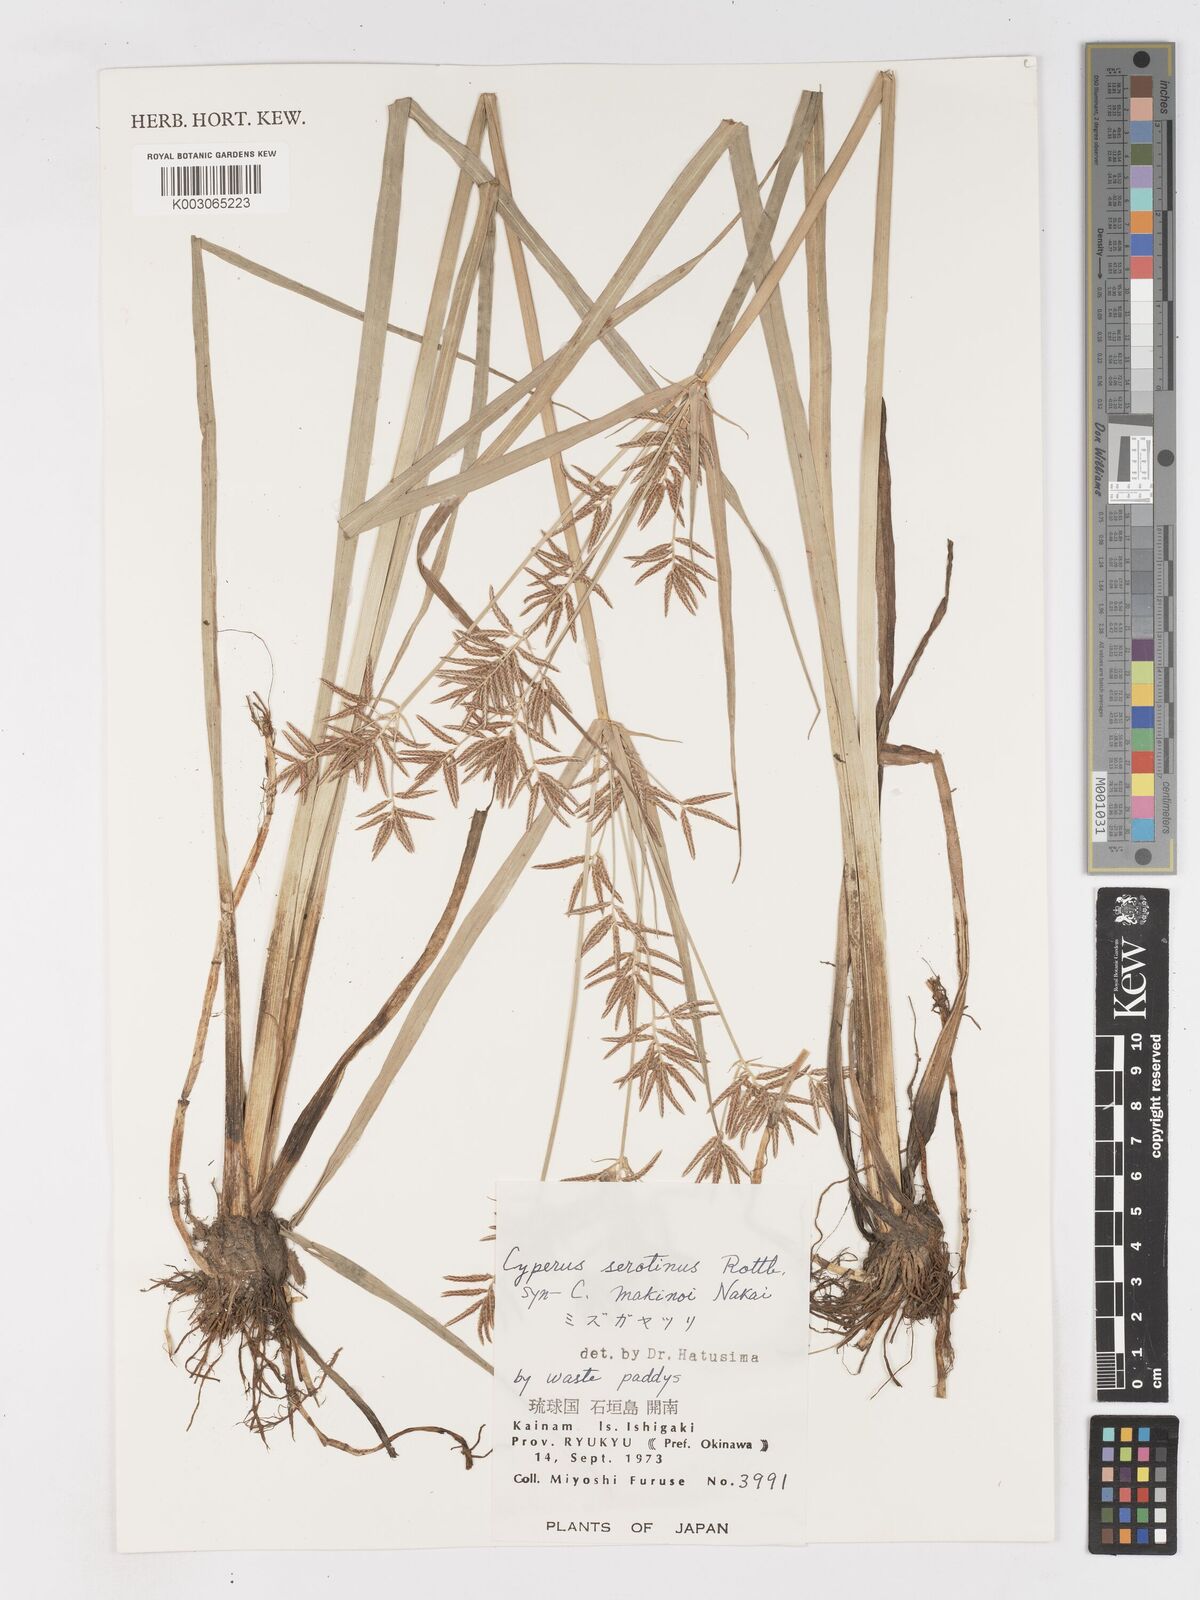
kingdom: Plantae
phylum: Tracheophyta
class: Liliopsida
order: Poales
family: Cyperaceae
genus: Cyperus
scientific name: Cyperus serotinus
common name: Tidalmarsh flatsedge
